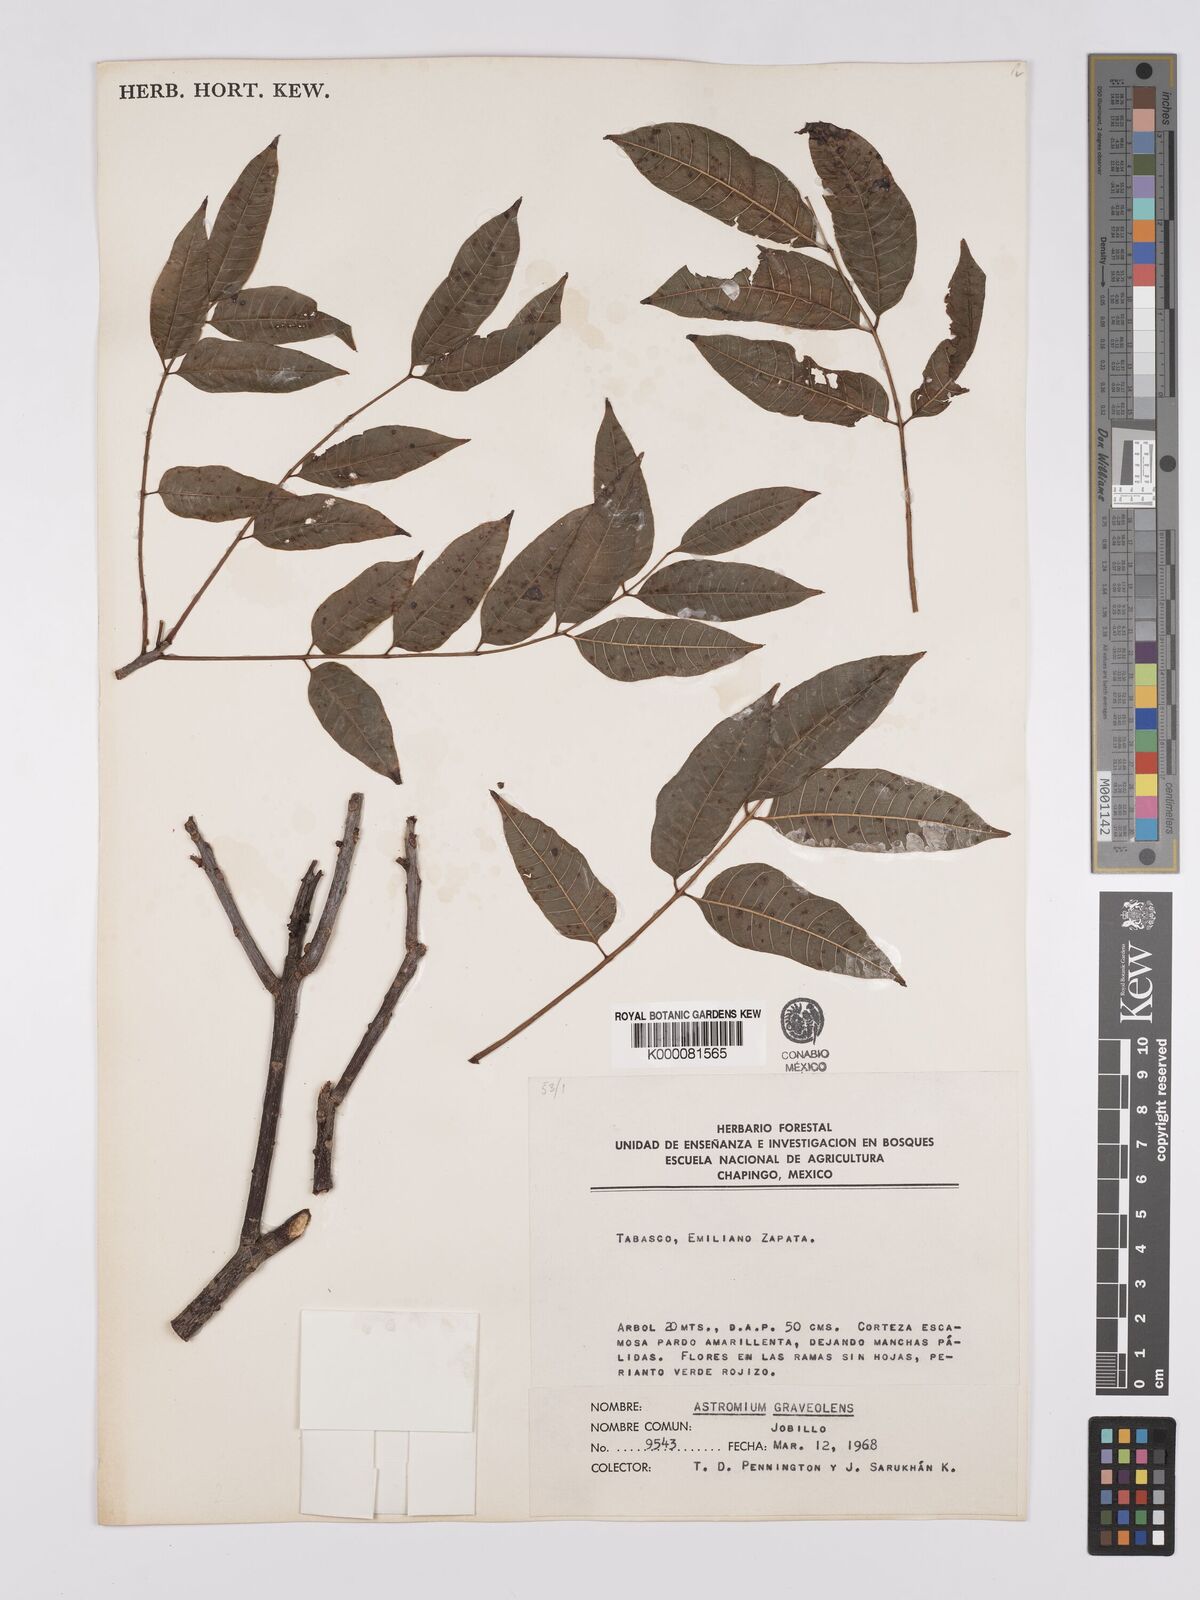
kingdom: Plantae
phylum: Tracheophyta
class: Magnoliopsida
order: Sapindales
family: Anacardiaceae
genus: Astronium
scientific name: Astronium graveolens
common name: Glassywood
